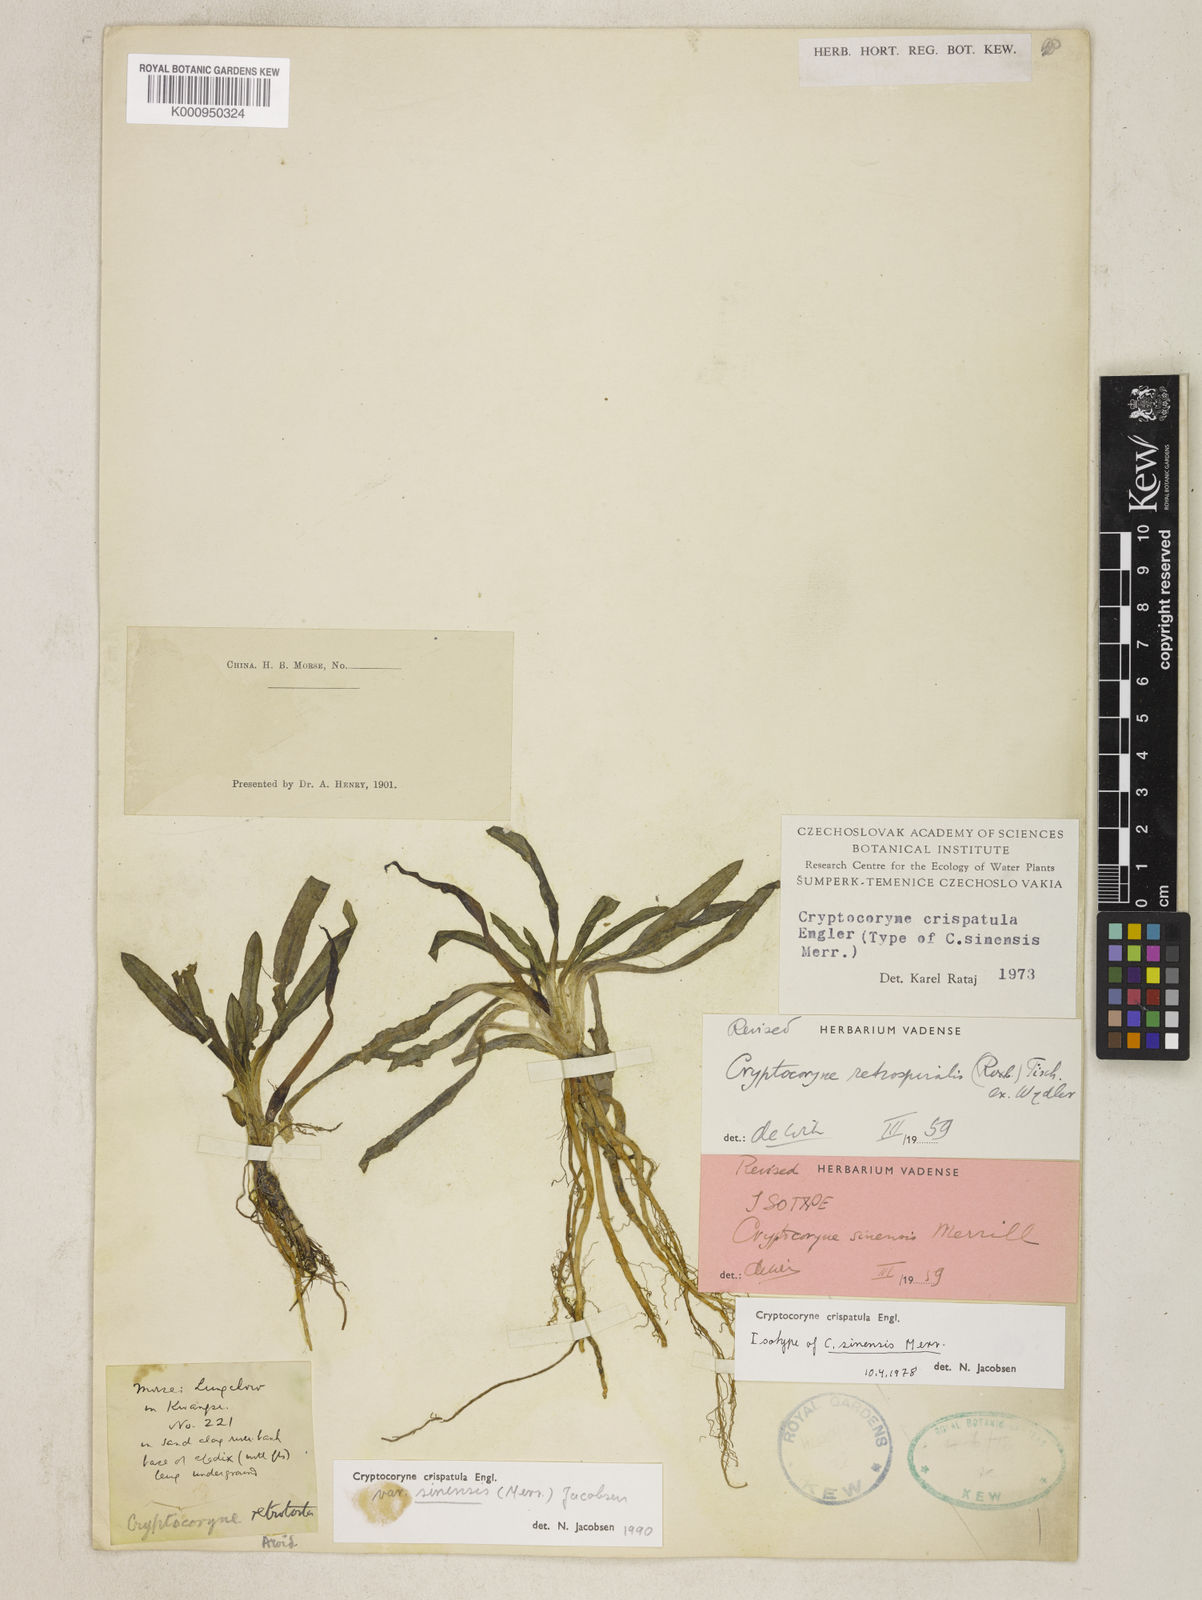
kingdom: Plantae
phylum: Tracheophyta
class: Liliopsida
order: Alismatales
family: Araceae
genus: Cryptocoryne
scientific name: Cryptocoryne crispatula
